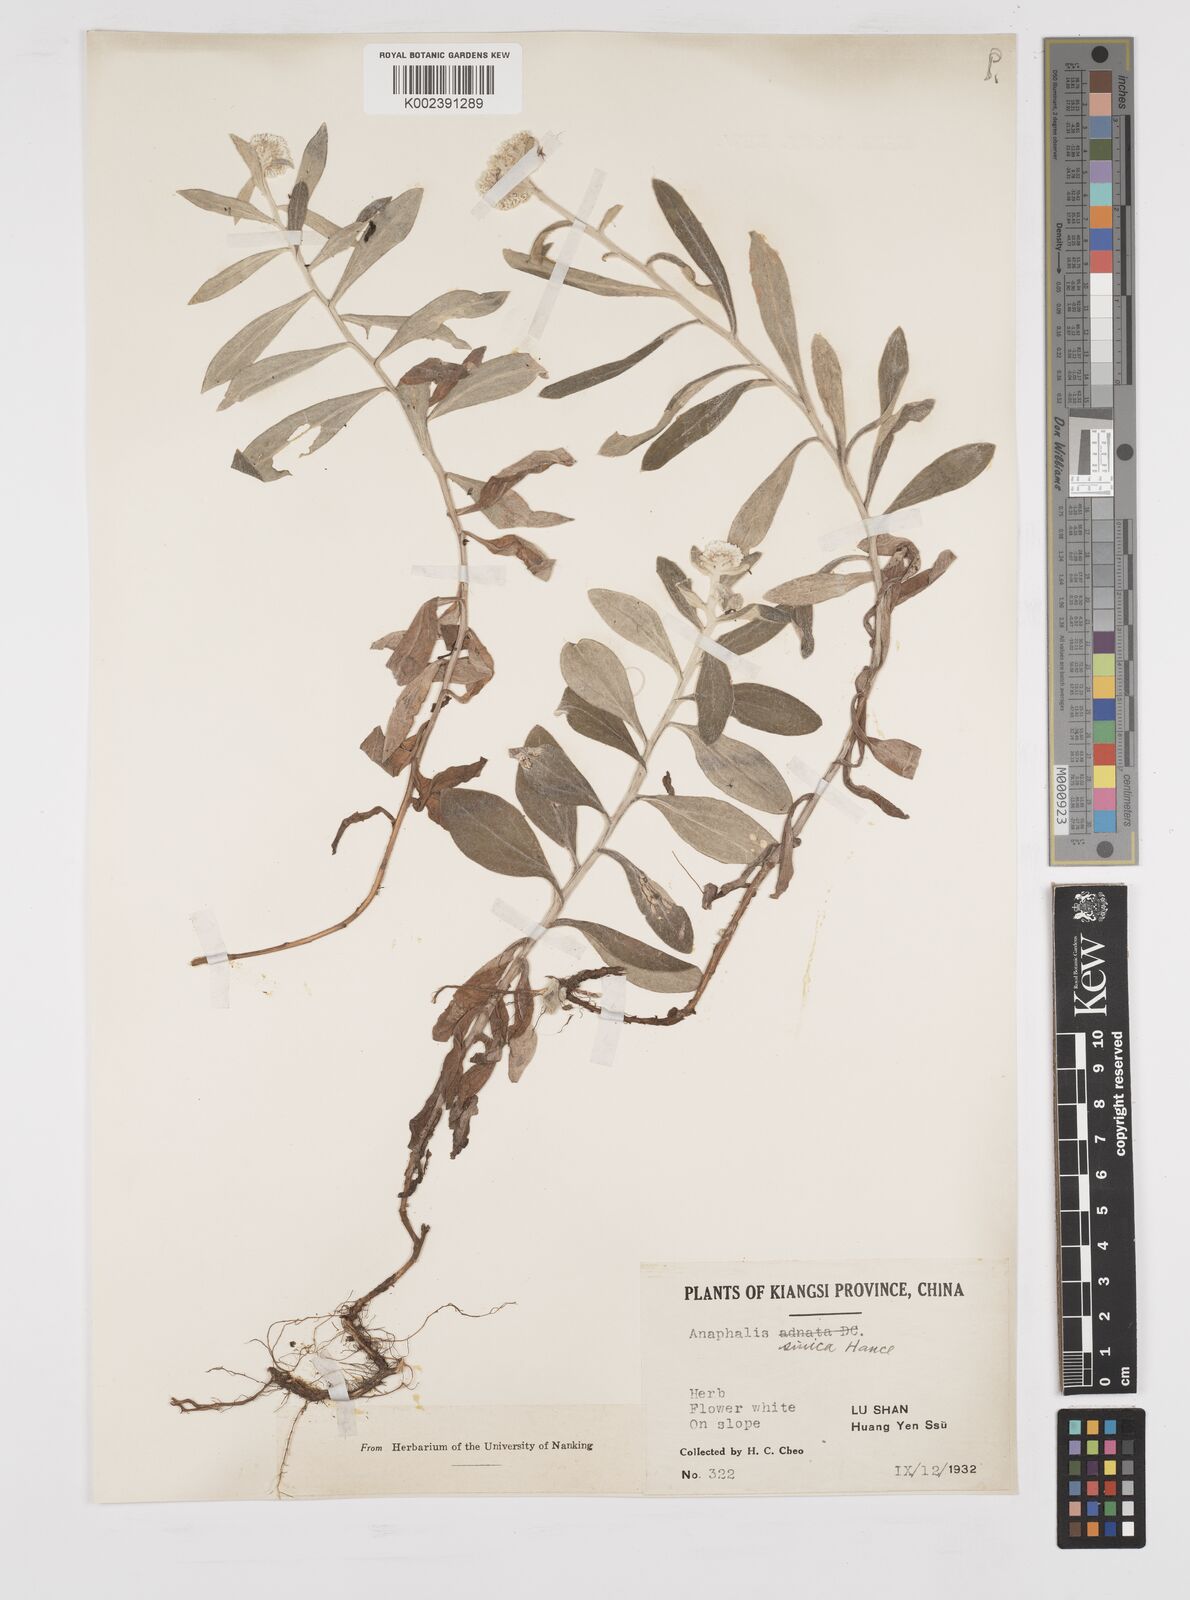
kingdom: Plantae
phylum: Tracheophyta
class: Magnoliopsida
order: Asterales
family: Asteraceae
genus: Anaphalis
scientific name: Anaphalis sinica
